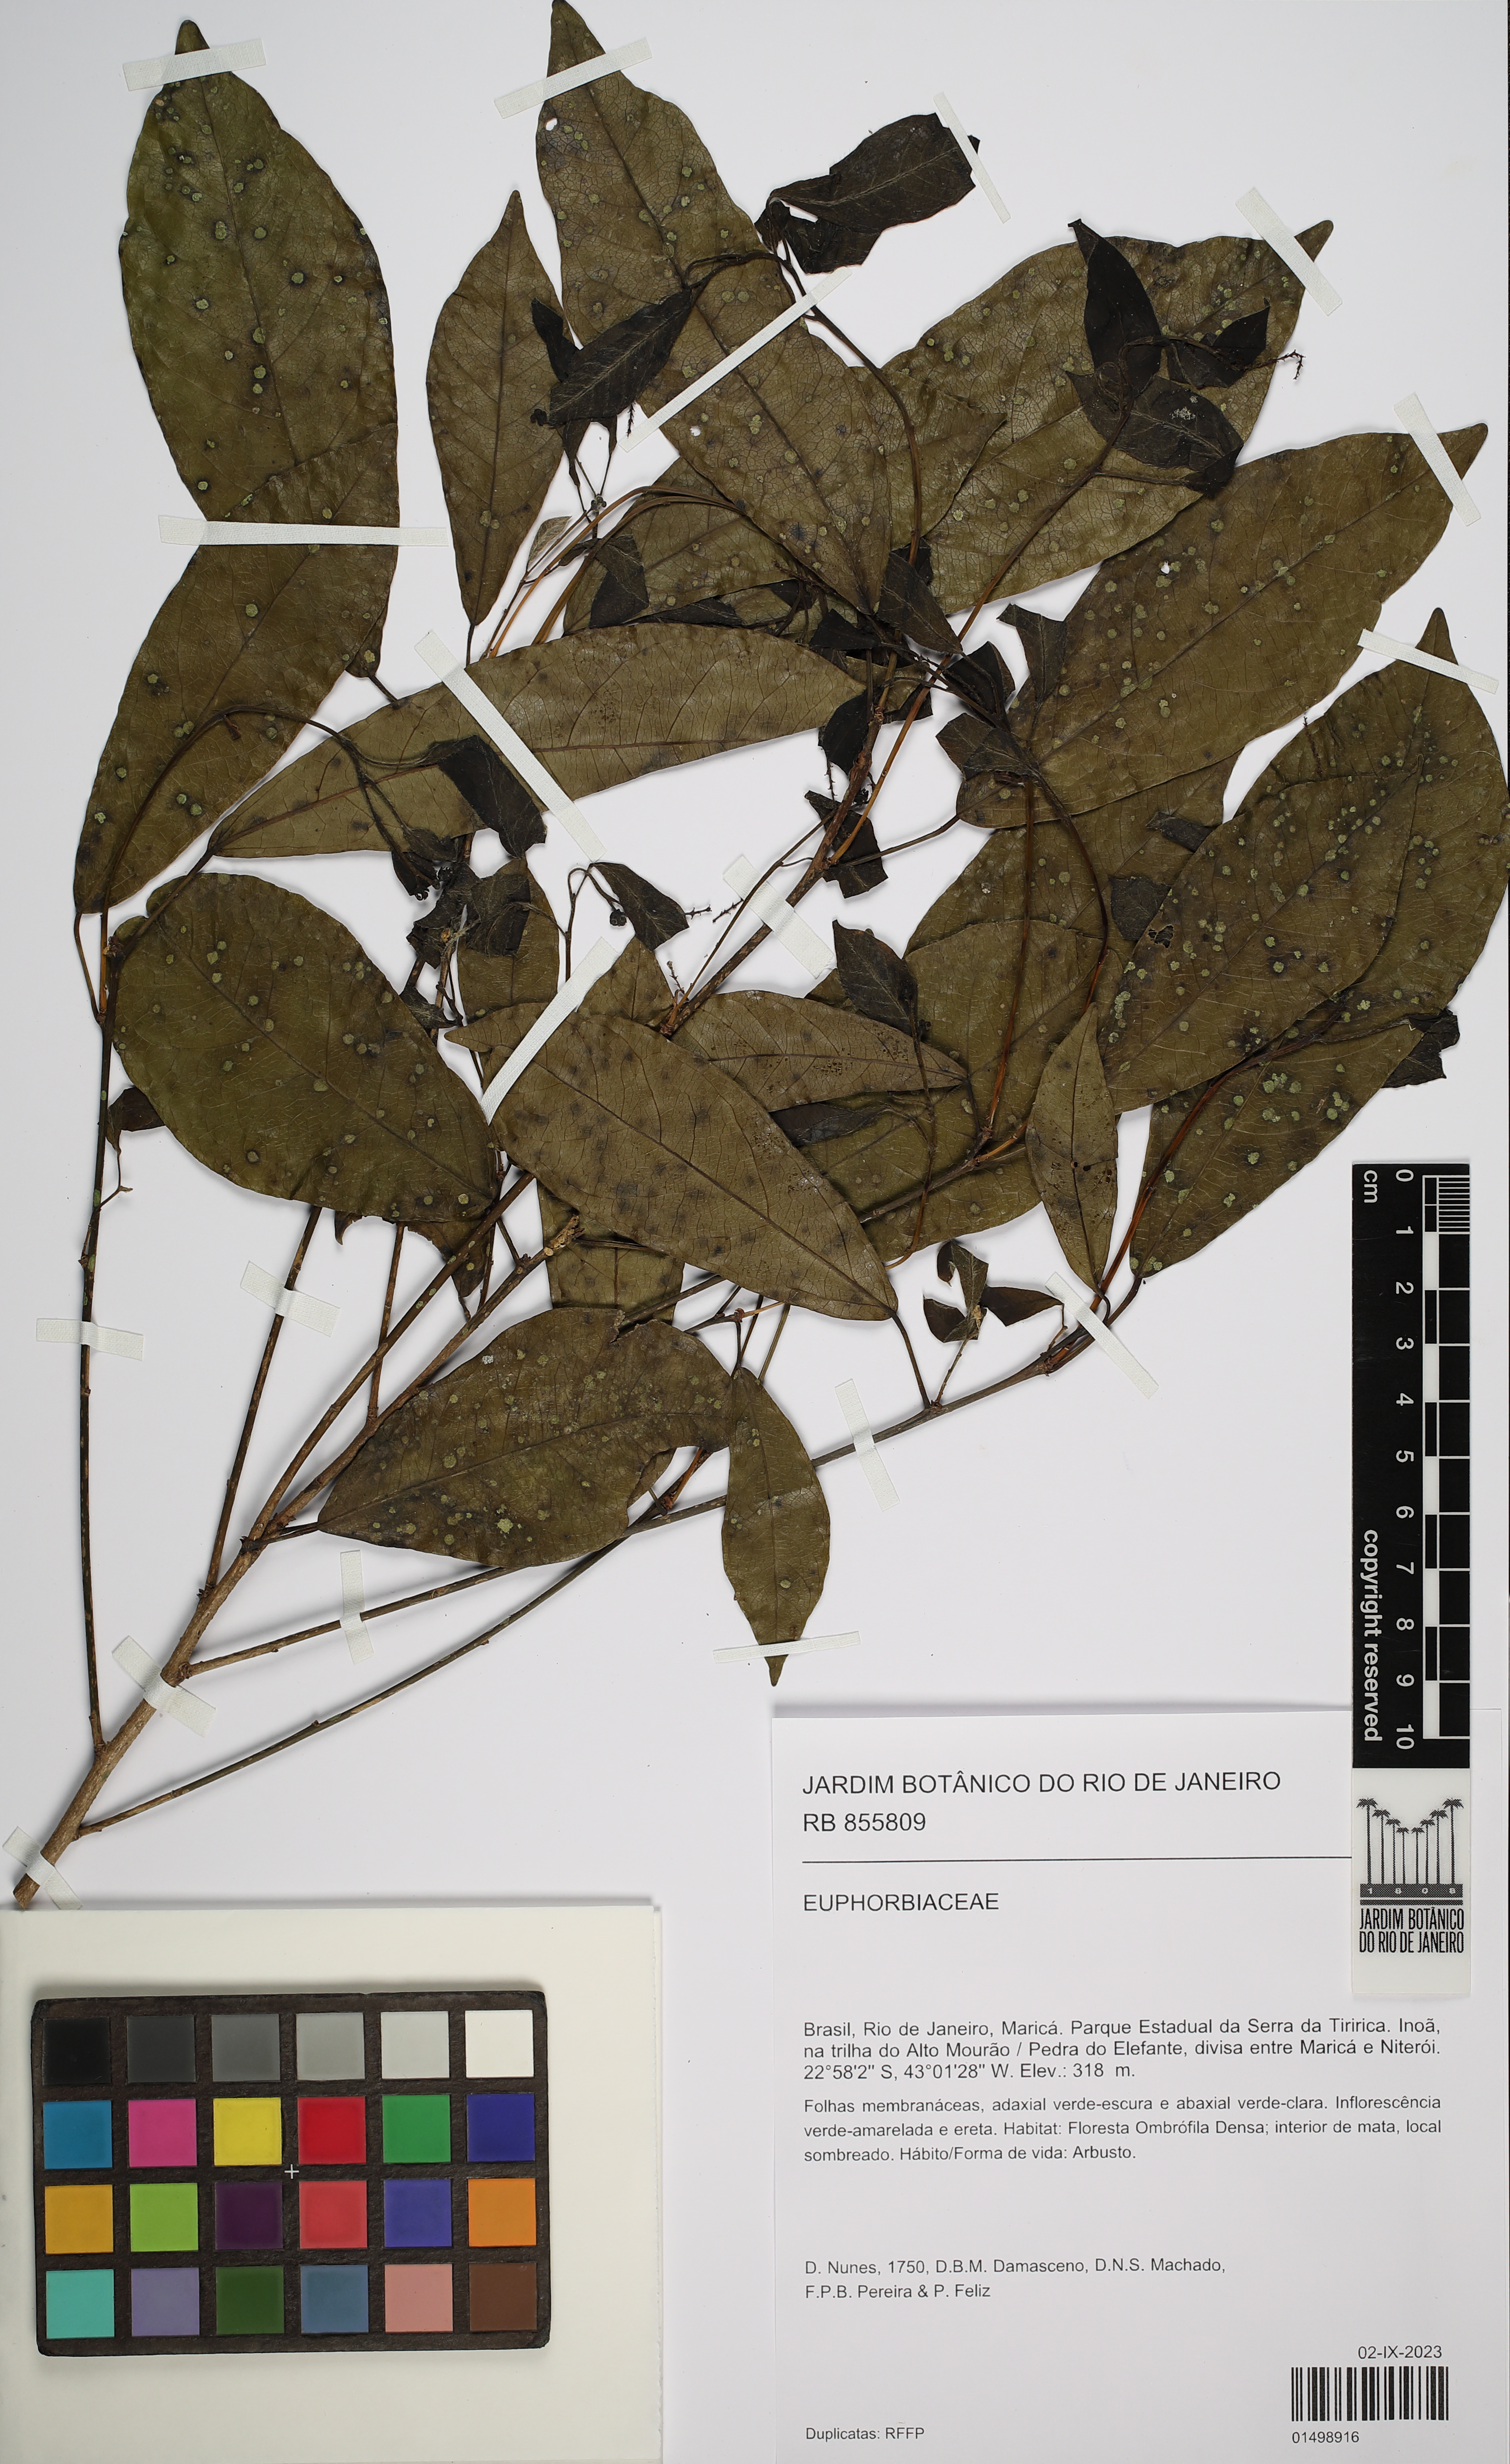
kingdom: Plantae
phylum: Tracheophyta
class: Magnoliopsida
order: Malpighiales
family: Euphorbiaceae
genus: Actinostemon
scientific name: Actinostemon klotzschii
